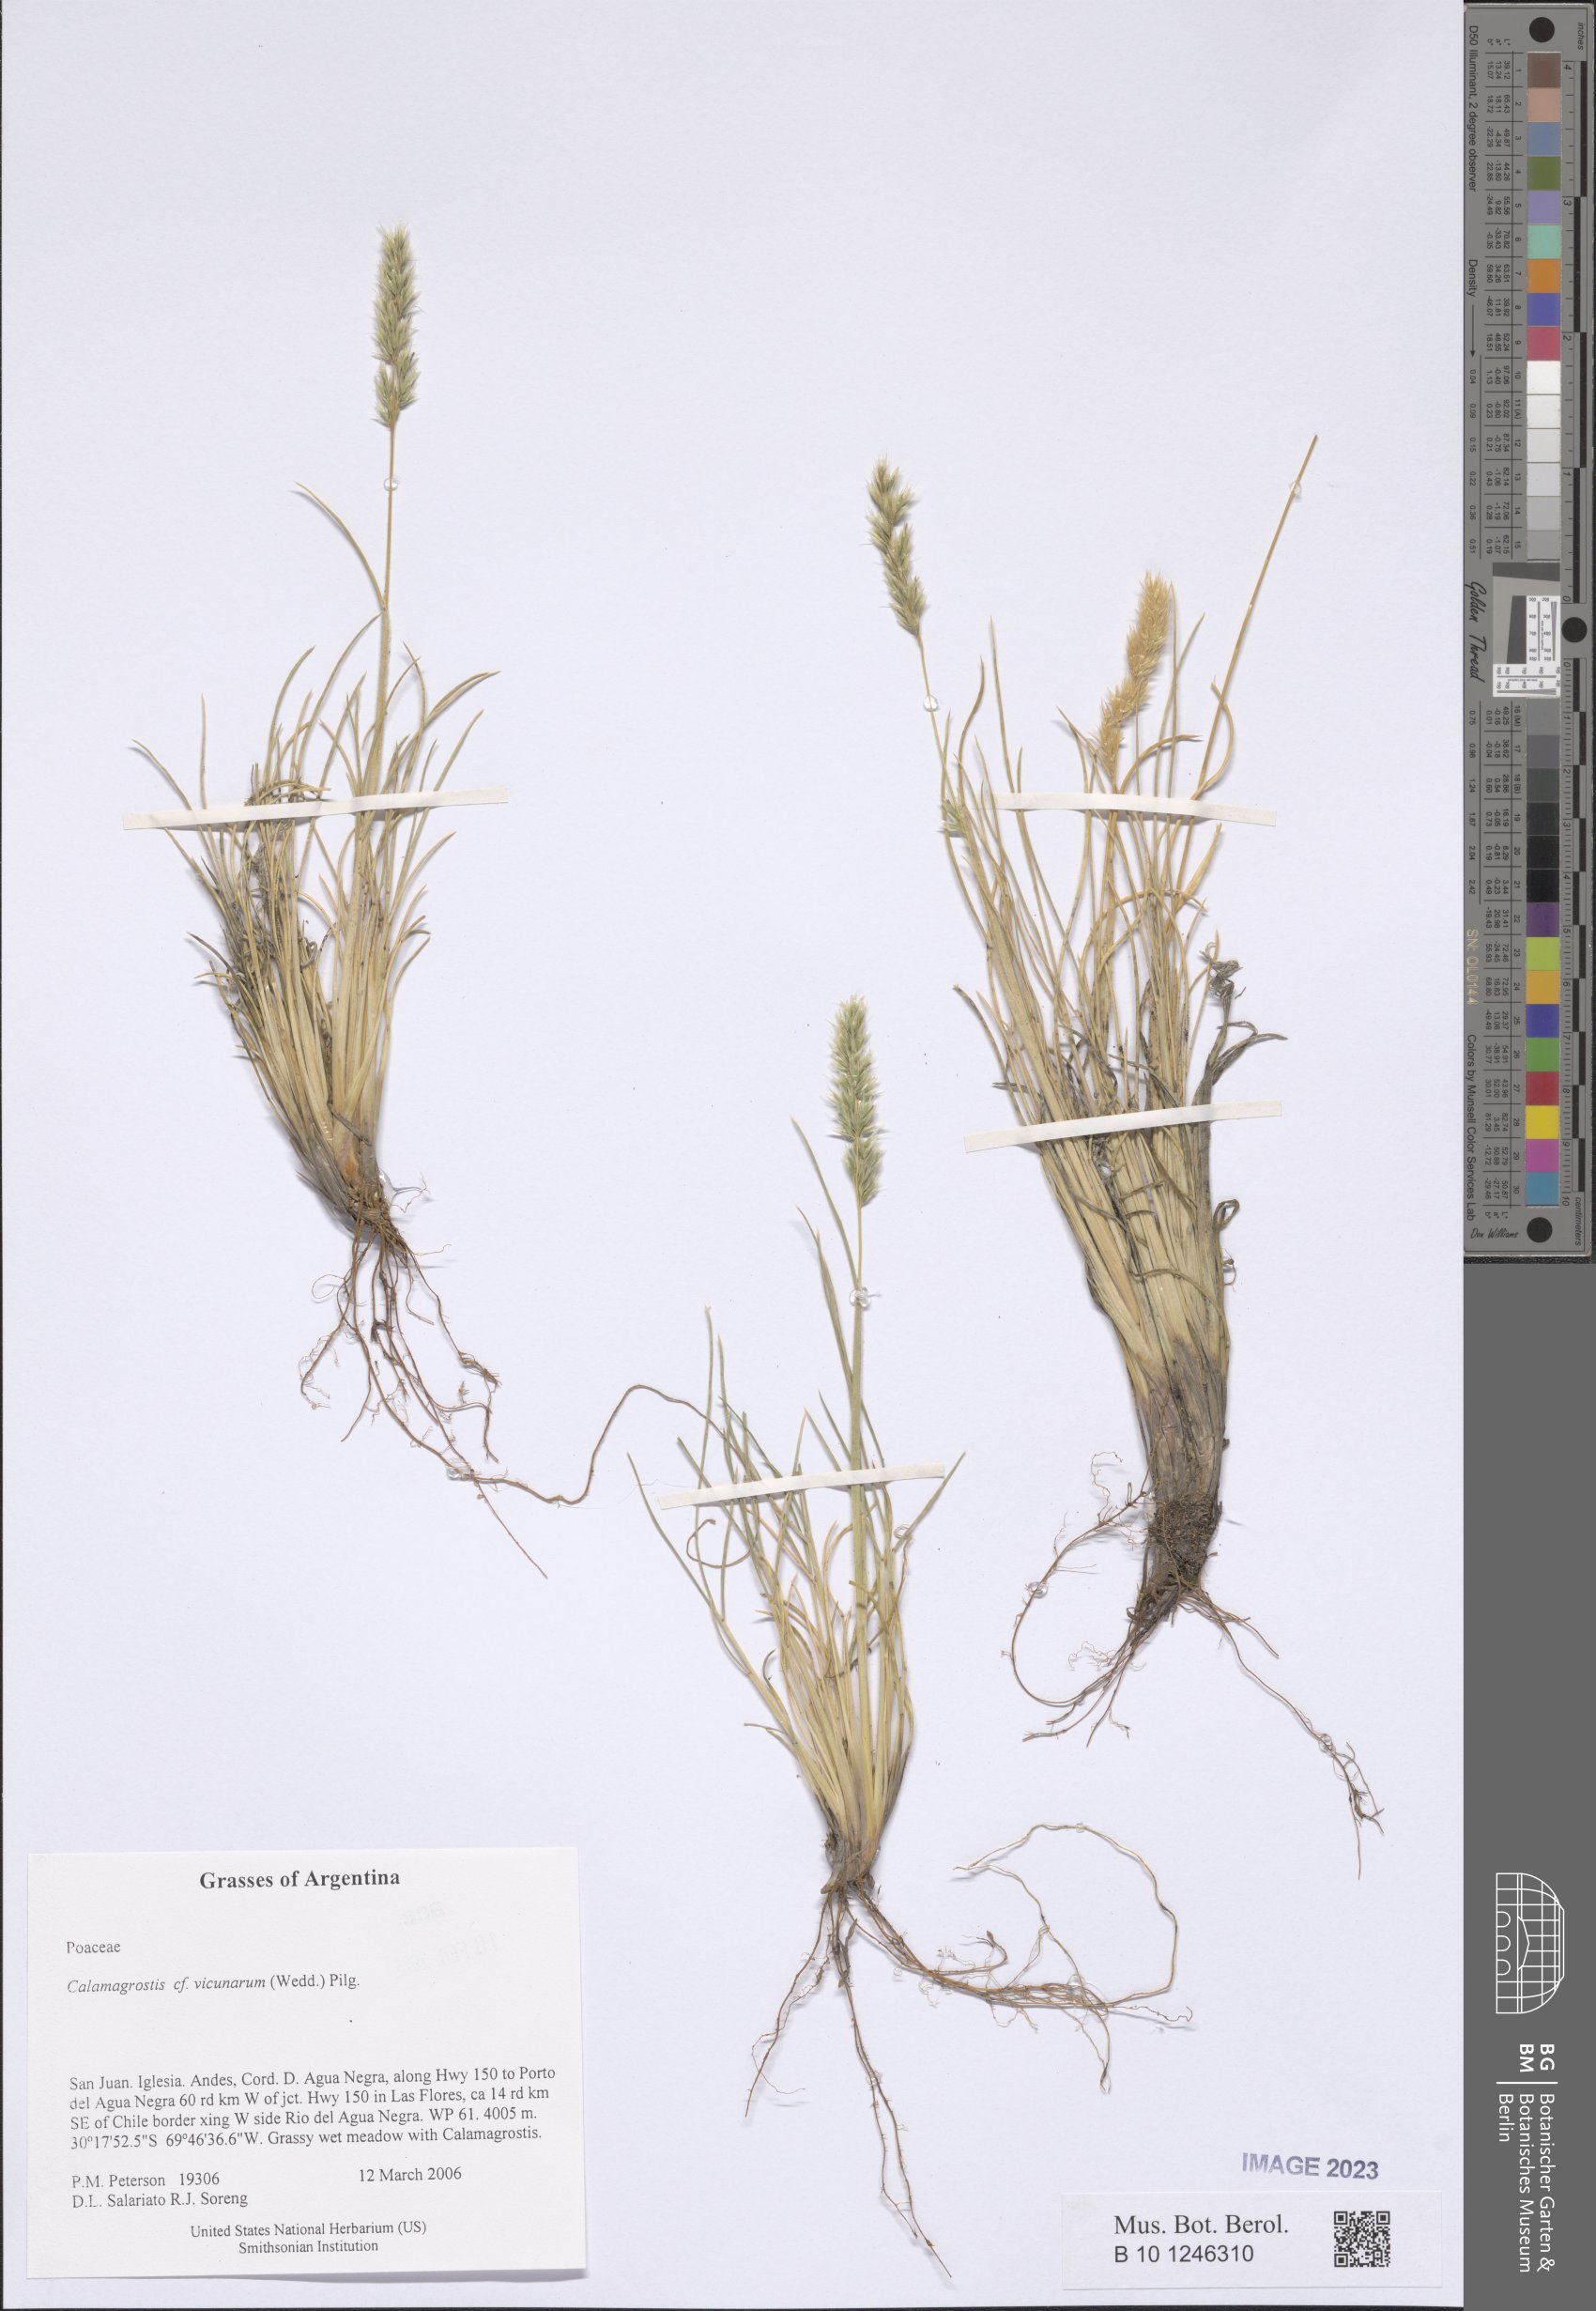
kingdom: Plantae
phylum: Tracheophyta
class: Liliopsida
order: Poales
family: Poaceae
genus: Cinnagrostis
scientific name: Cinnagrostis vicunarum
